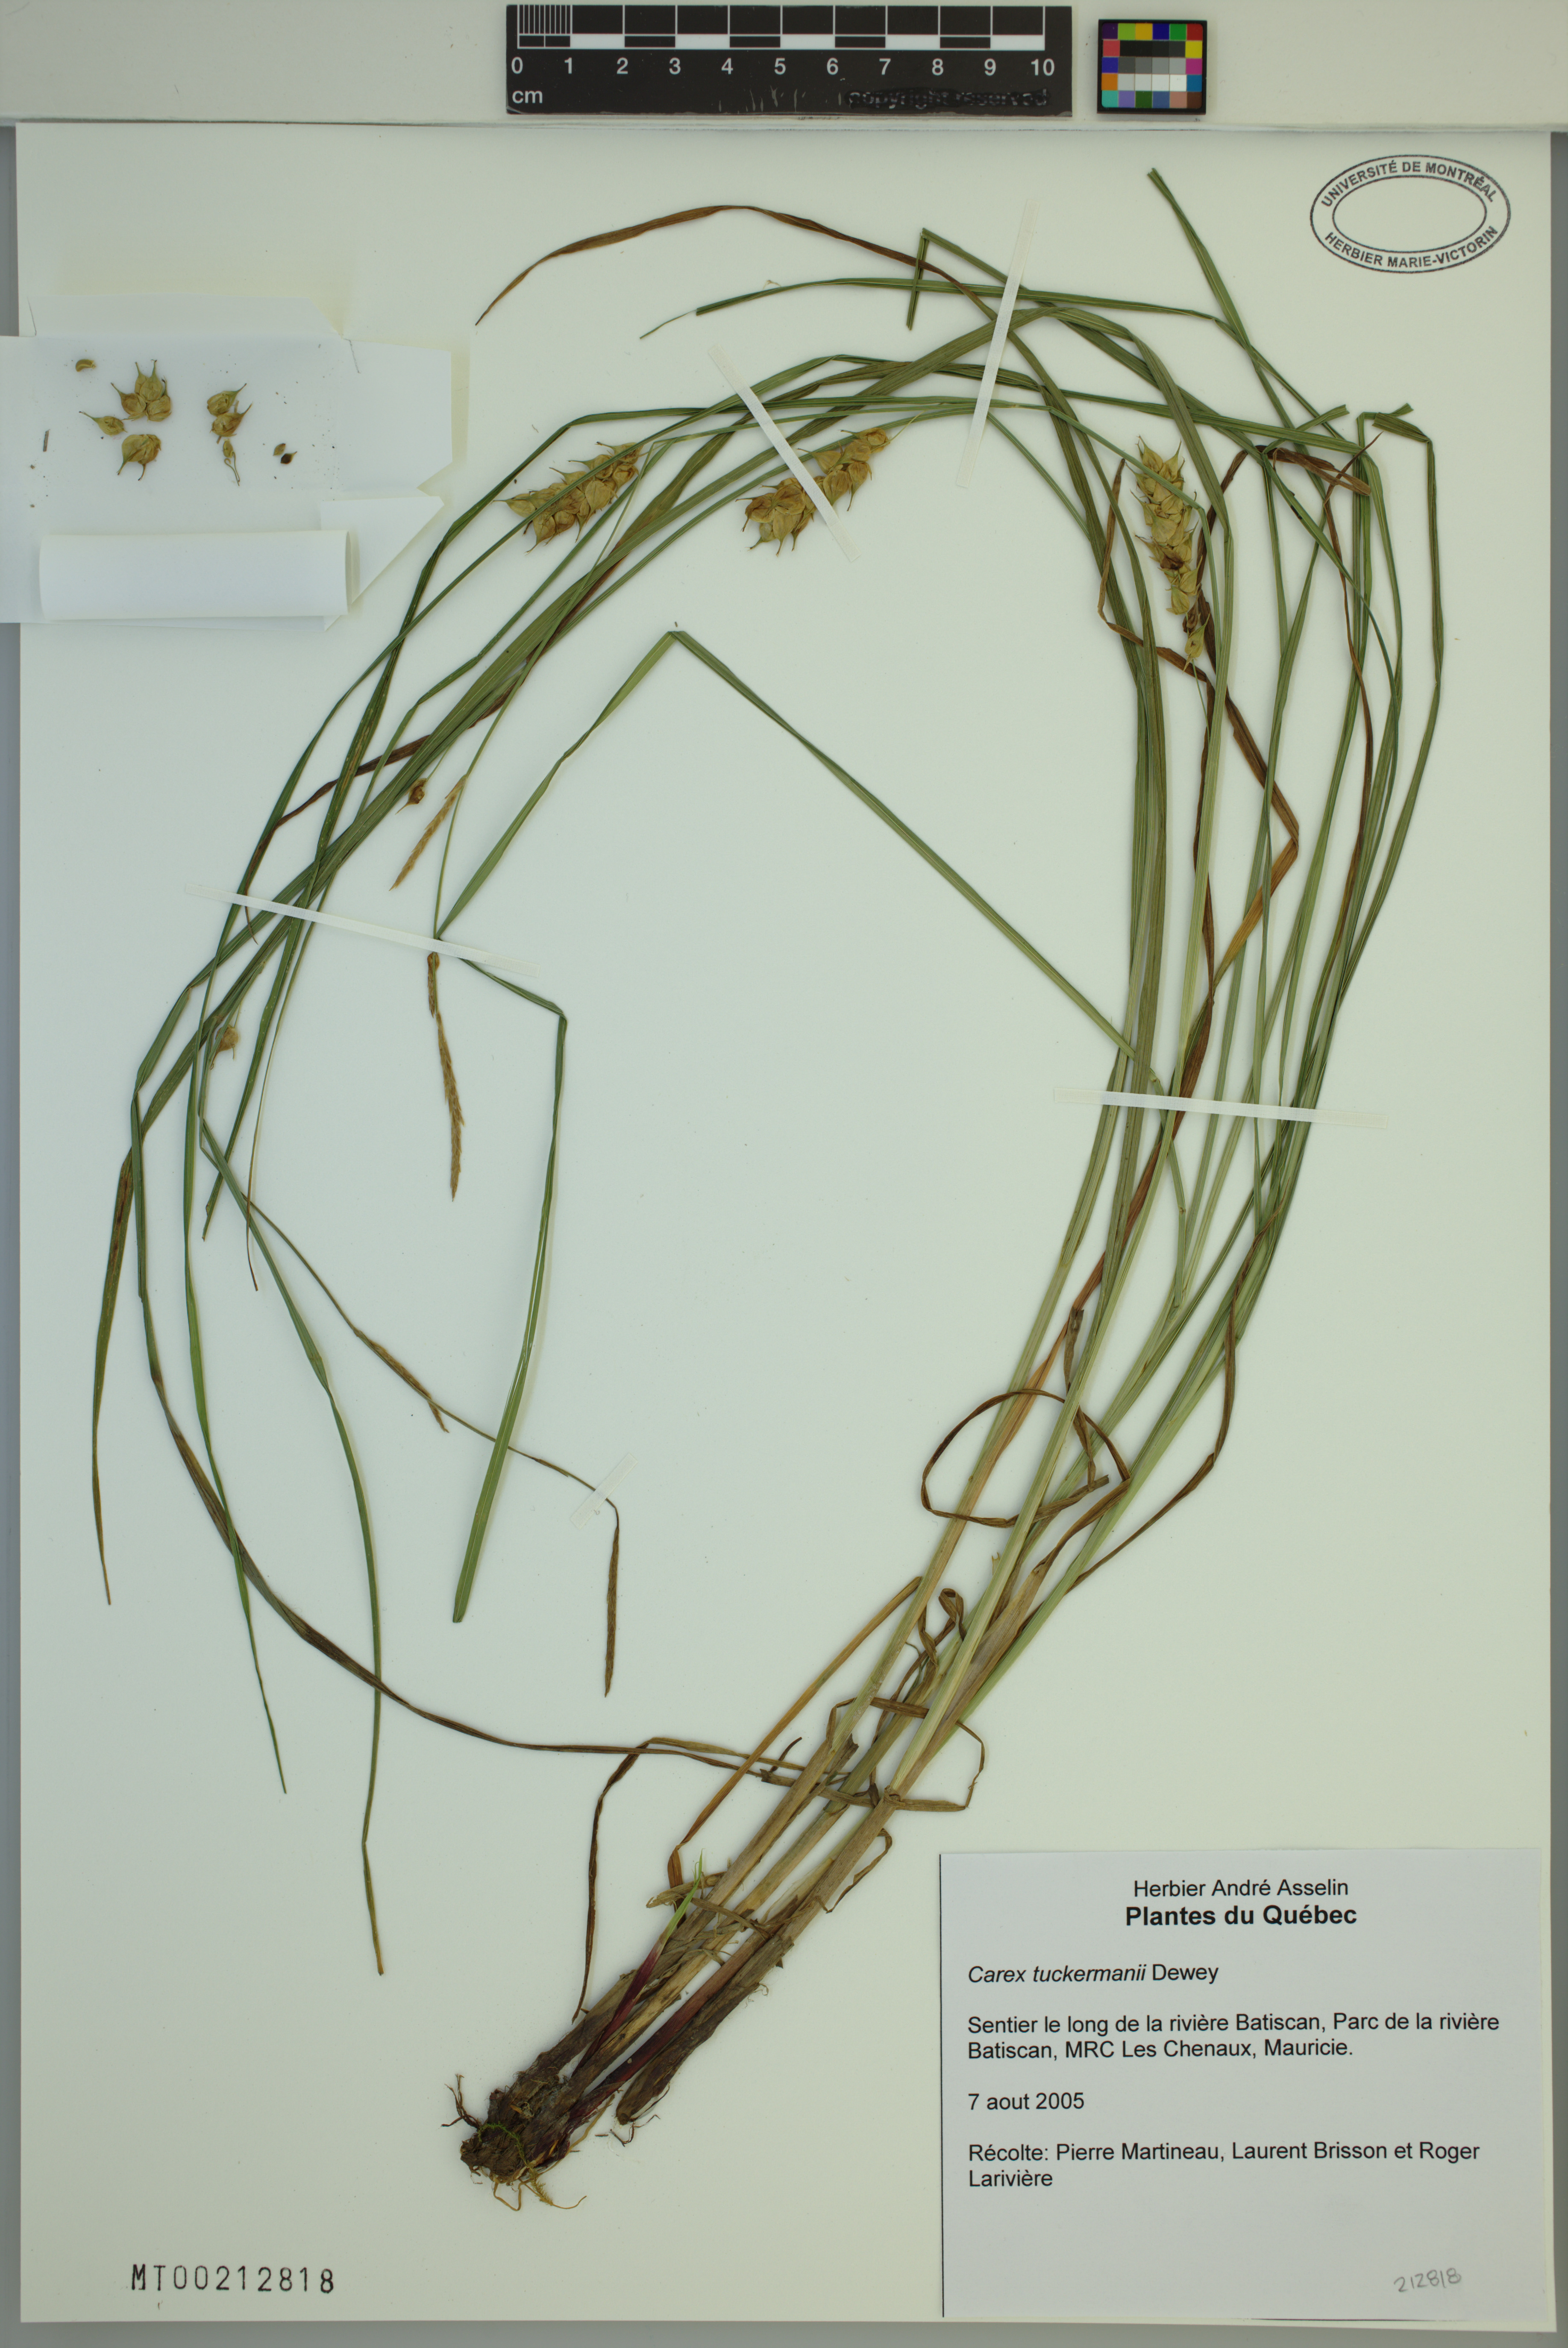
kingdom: Plantae
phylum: Tracheophyta
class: Liliopsida
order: Poales
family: Cyperaceae
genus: Carex
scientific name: Carex tuckermanii
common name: Tuckerman's sedge
